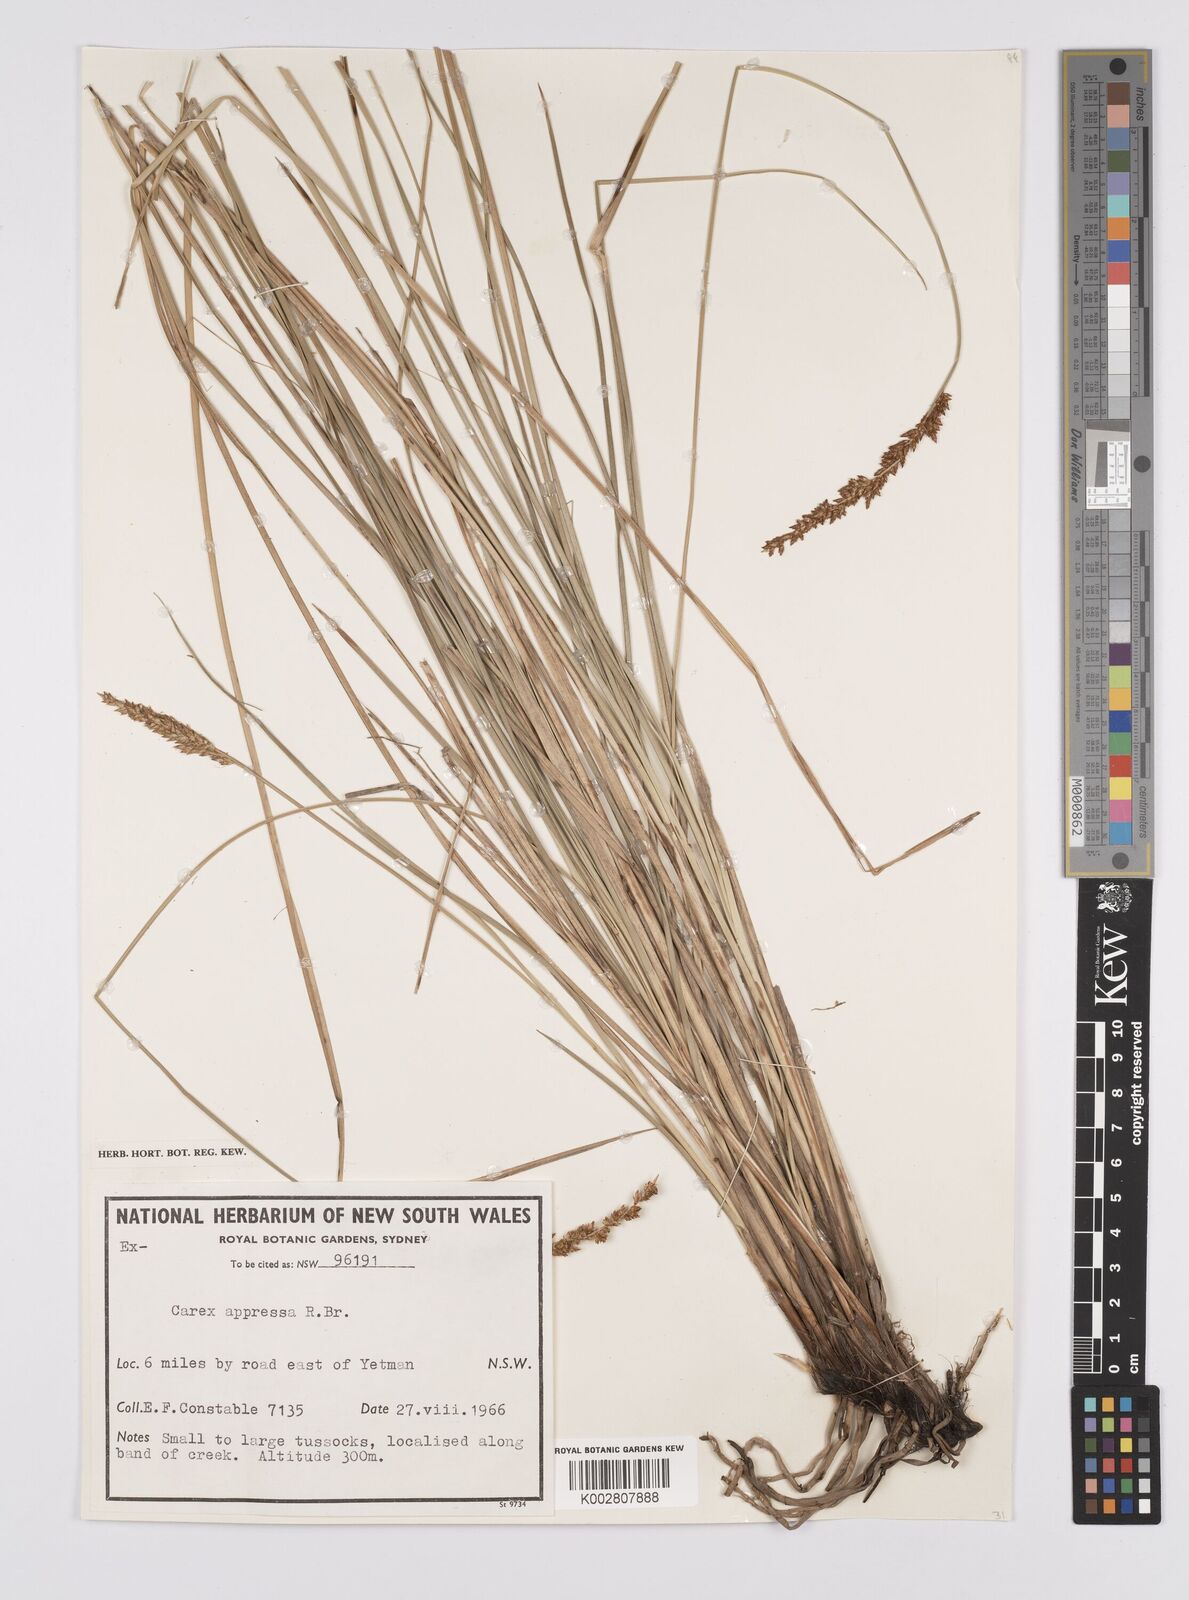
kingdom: Plantae
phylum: Tracheophyta
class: Liliopsida
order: Poales
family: Cyperaceae
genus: Carex
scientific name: Carex appressa
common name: Tussock sedge
